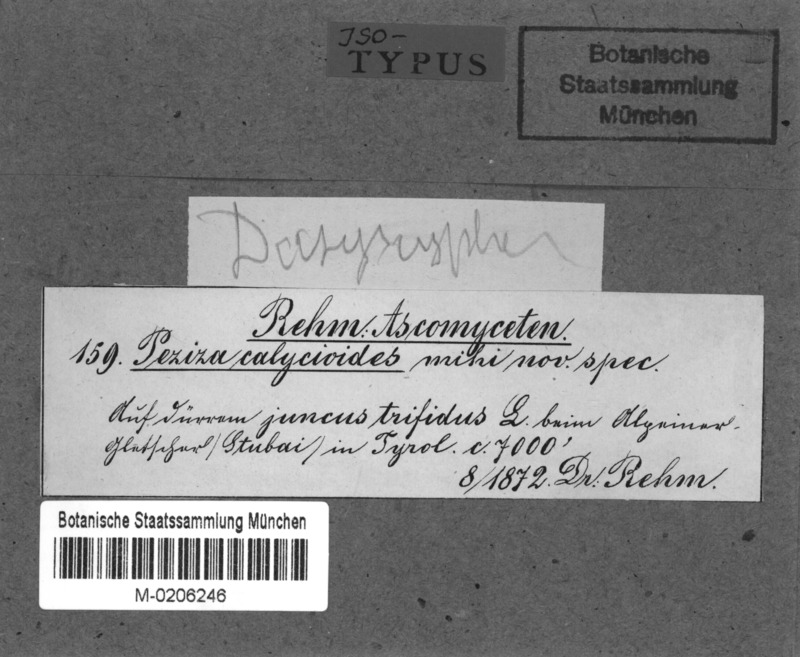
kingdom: Fungi
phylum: Ascomycota
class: Leotiomycetes
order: Helotiales
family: Lachnaceae
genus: Brunnipila
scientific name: Brunnipila calycioides
